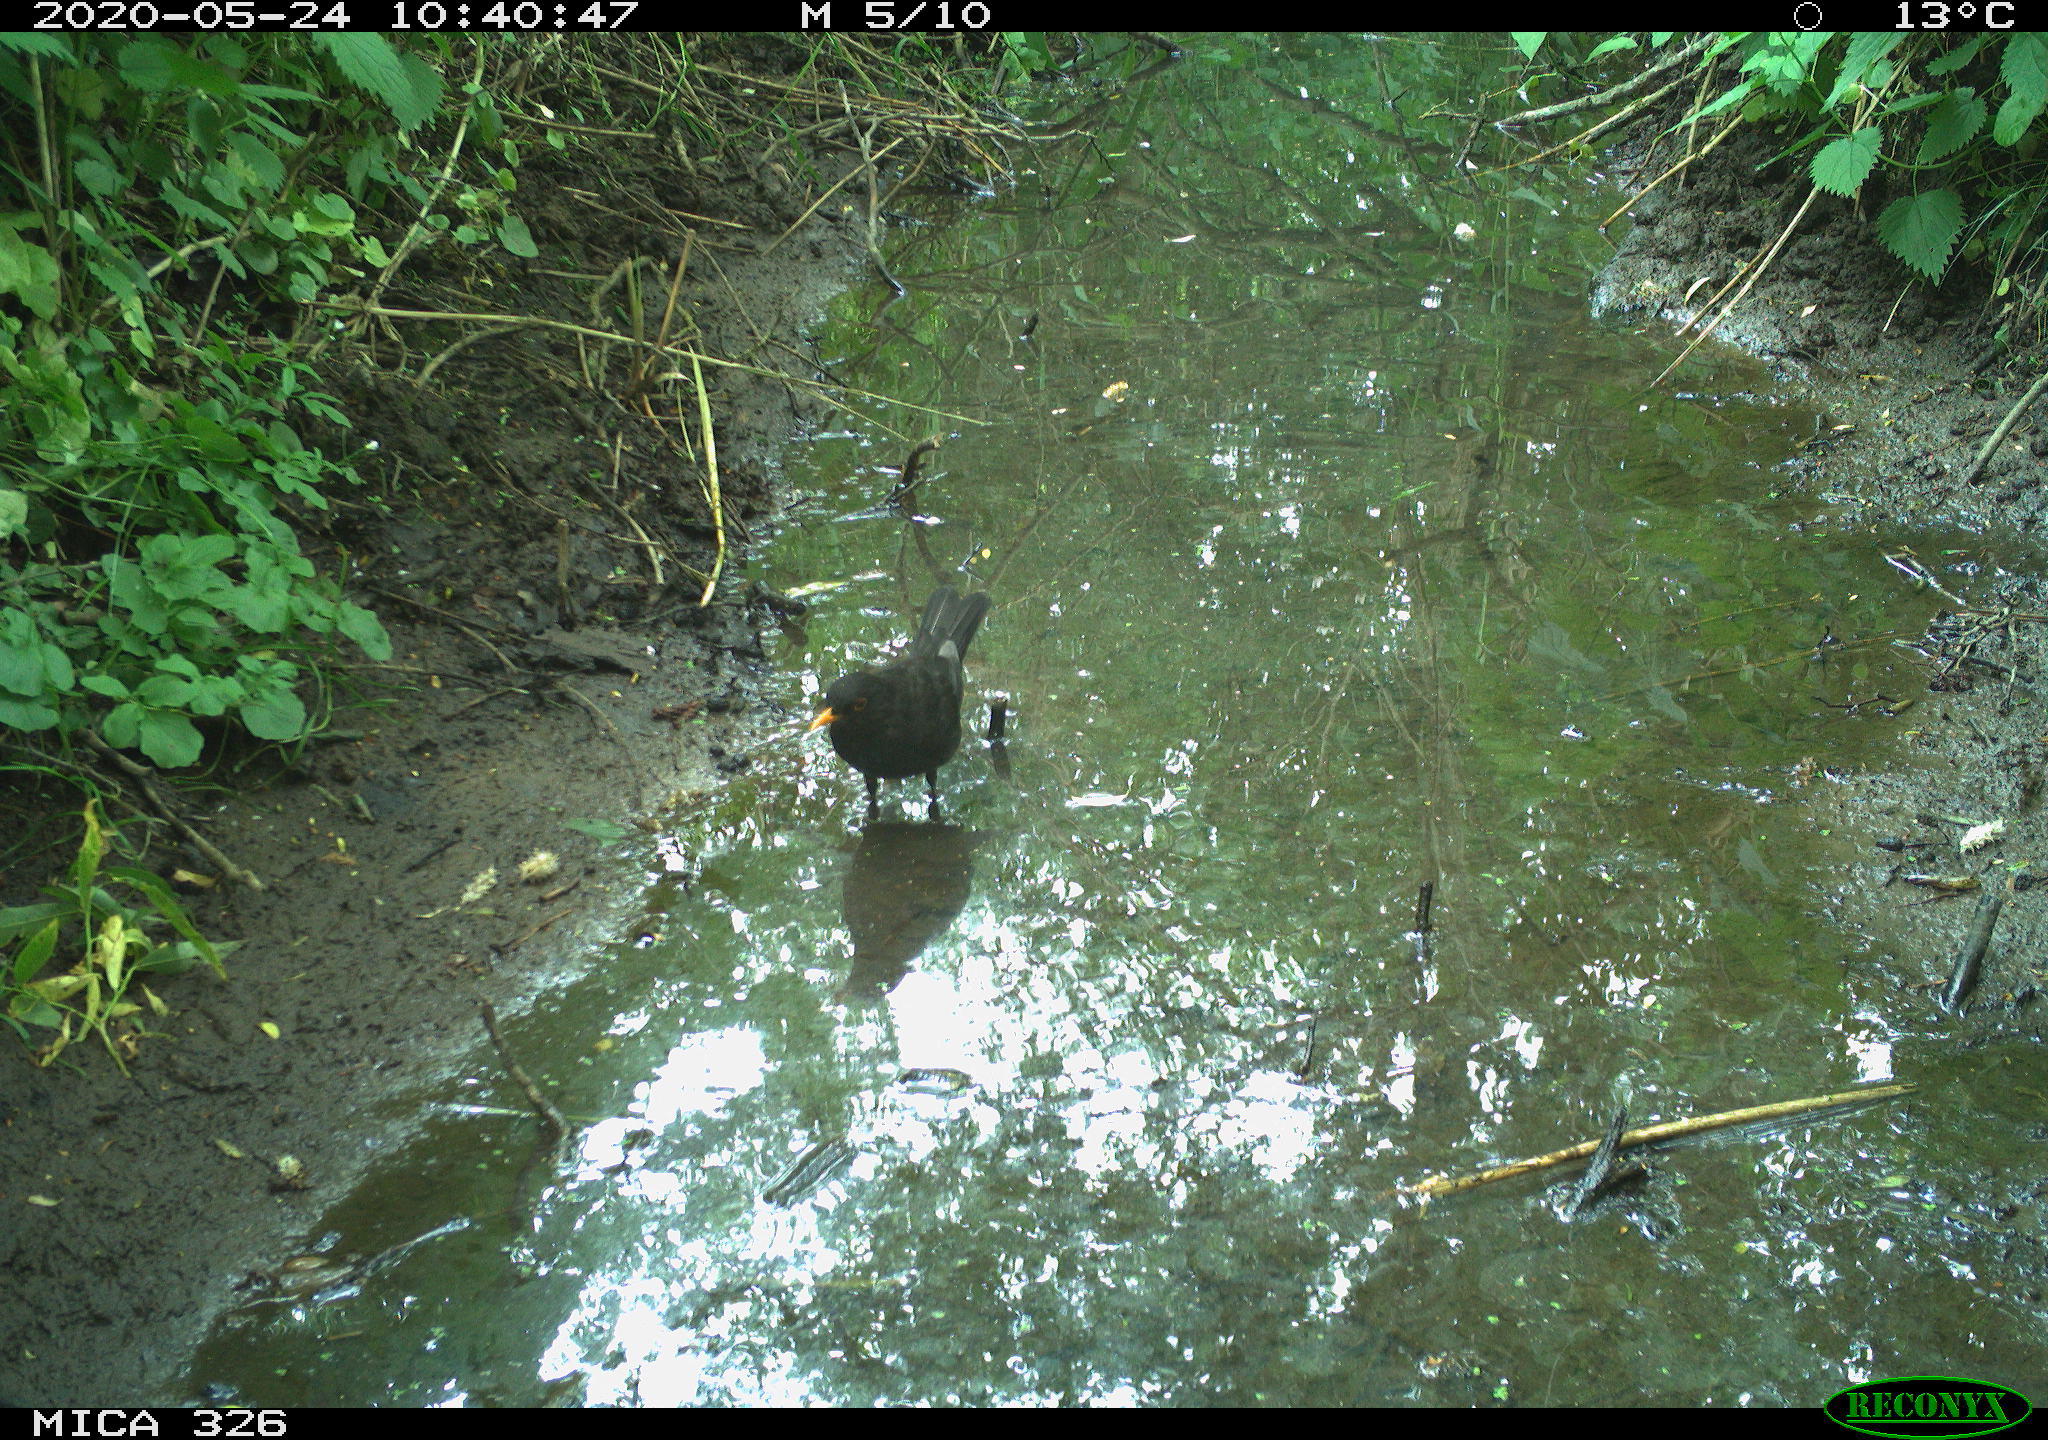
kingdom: Animalia
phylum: Chordata
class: Aves
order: Passeriformes
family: Turdidae
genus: Turdus
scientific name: Turdus merula
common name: Common blackbird
